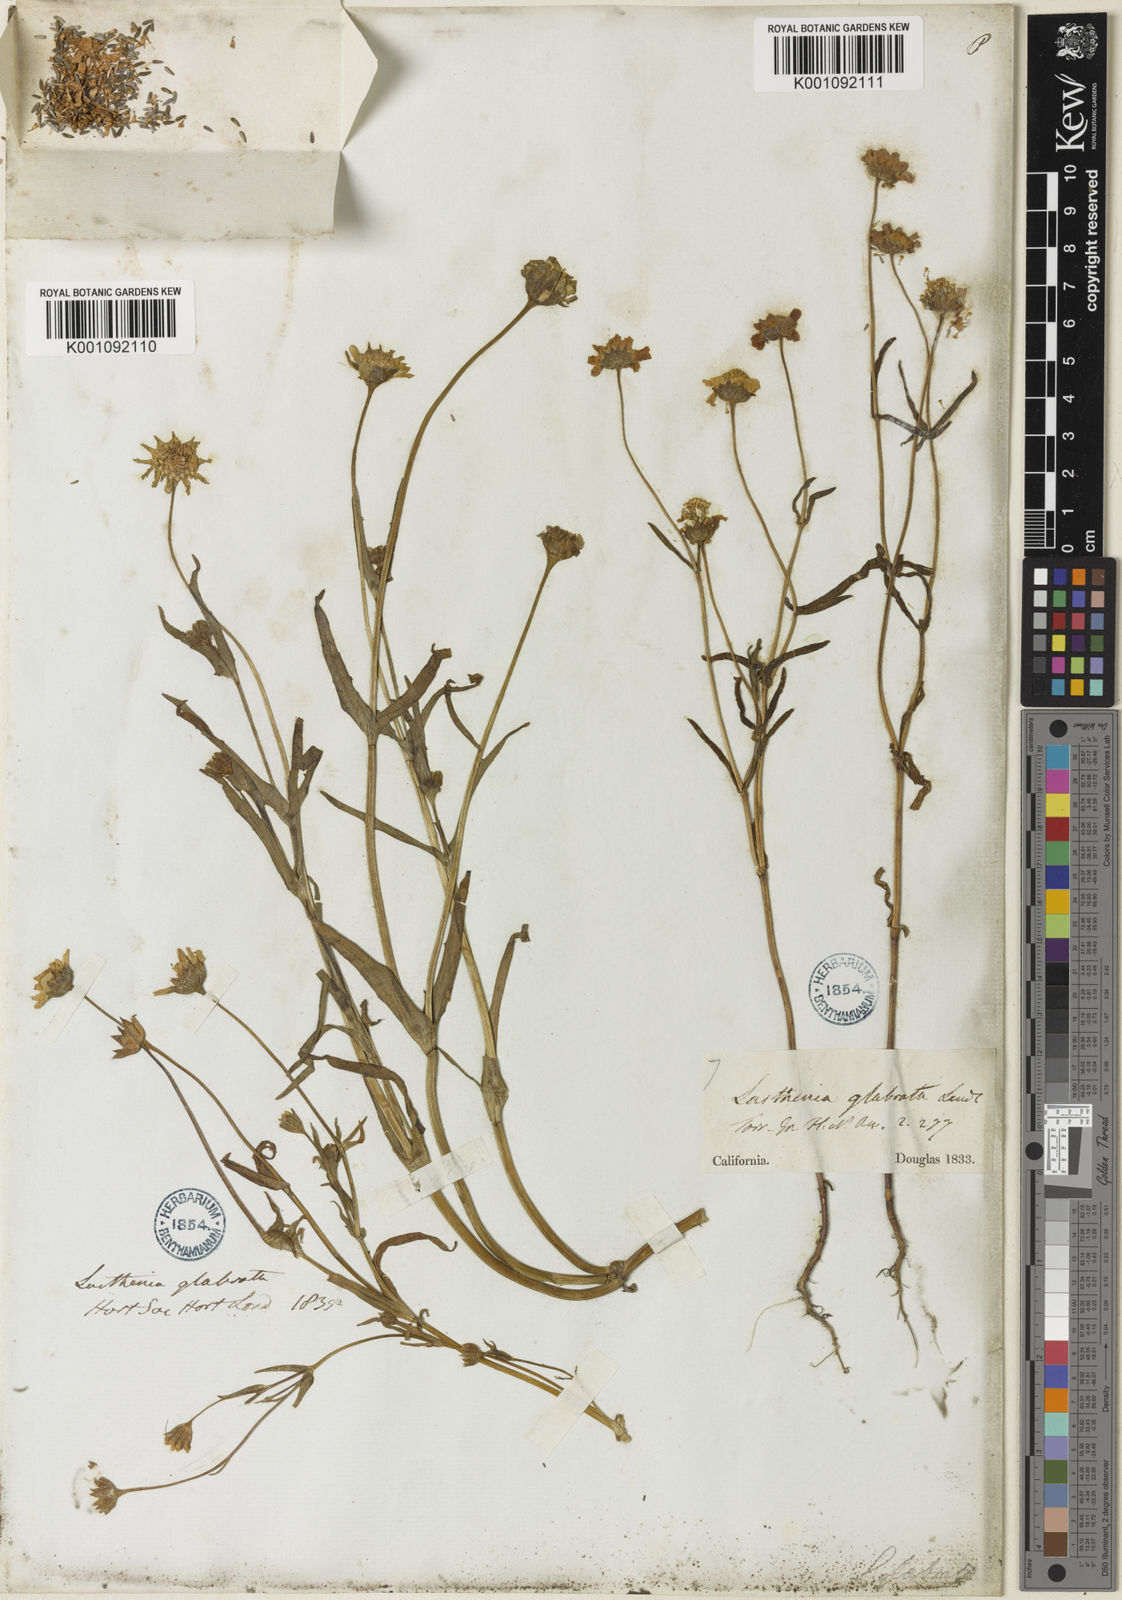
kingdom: Plantae
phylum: Tracheophyta
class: Magnoliopsida
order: Asterales
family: Asteraceae
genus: Lasthenia
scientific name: Lasthenia glabrata
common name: Yellow-ray lasthenia
